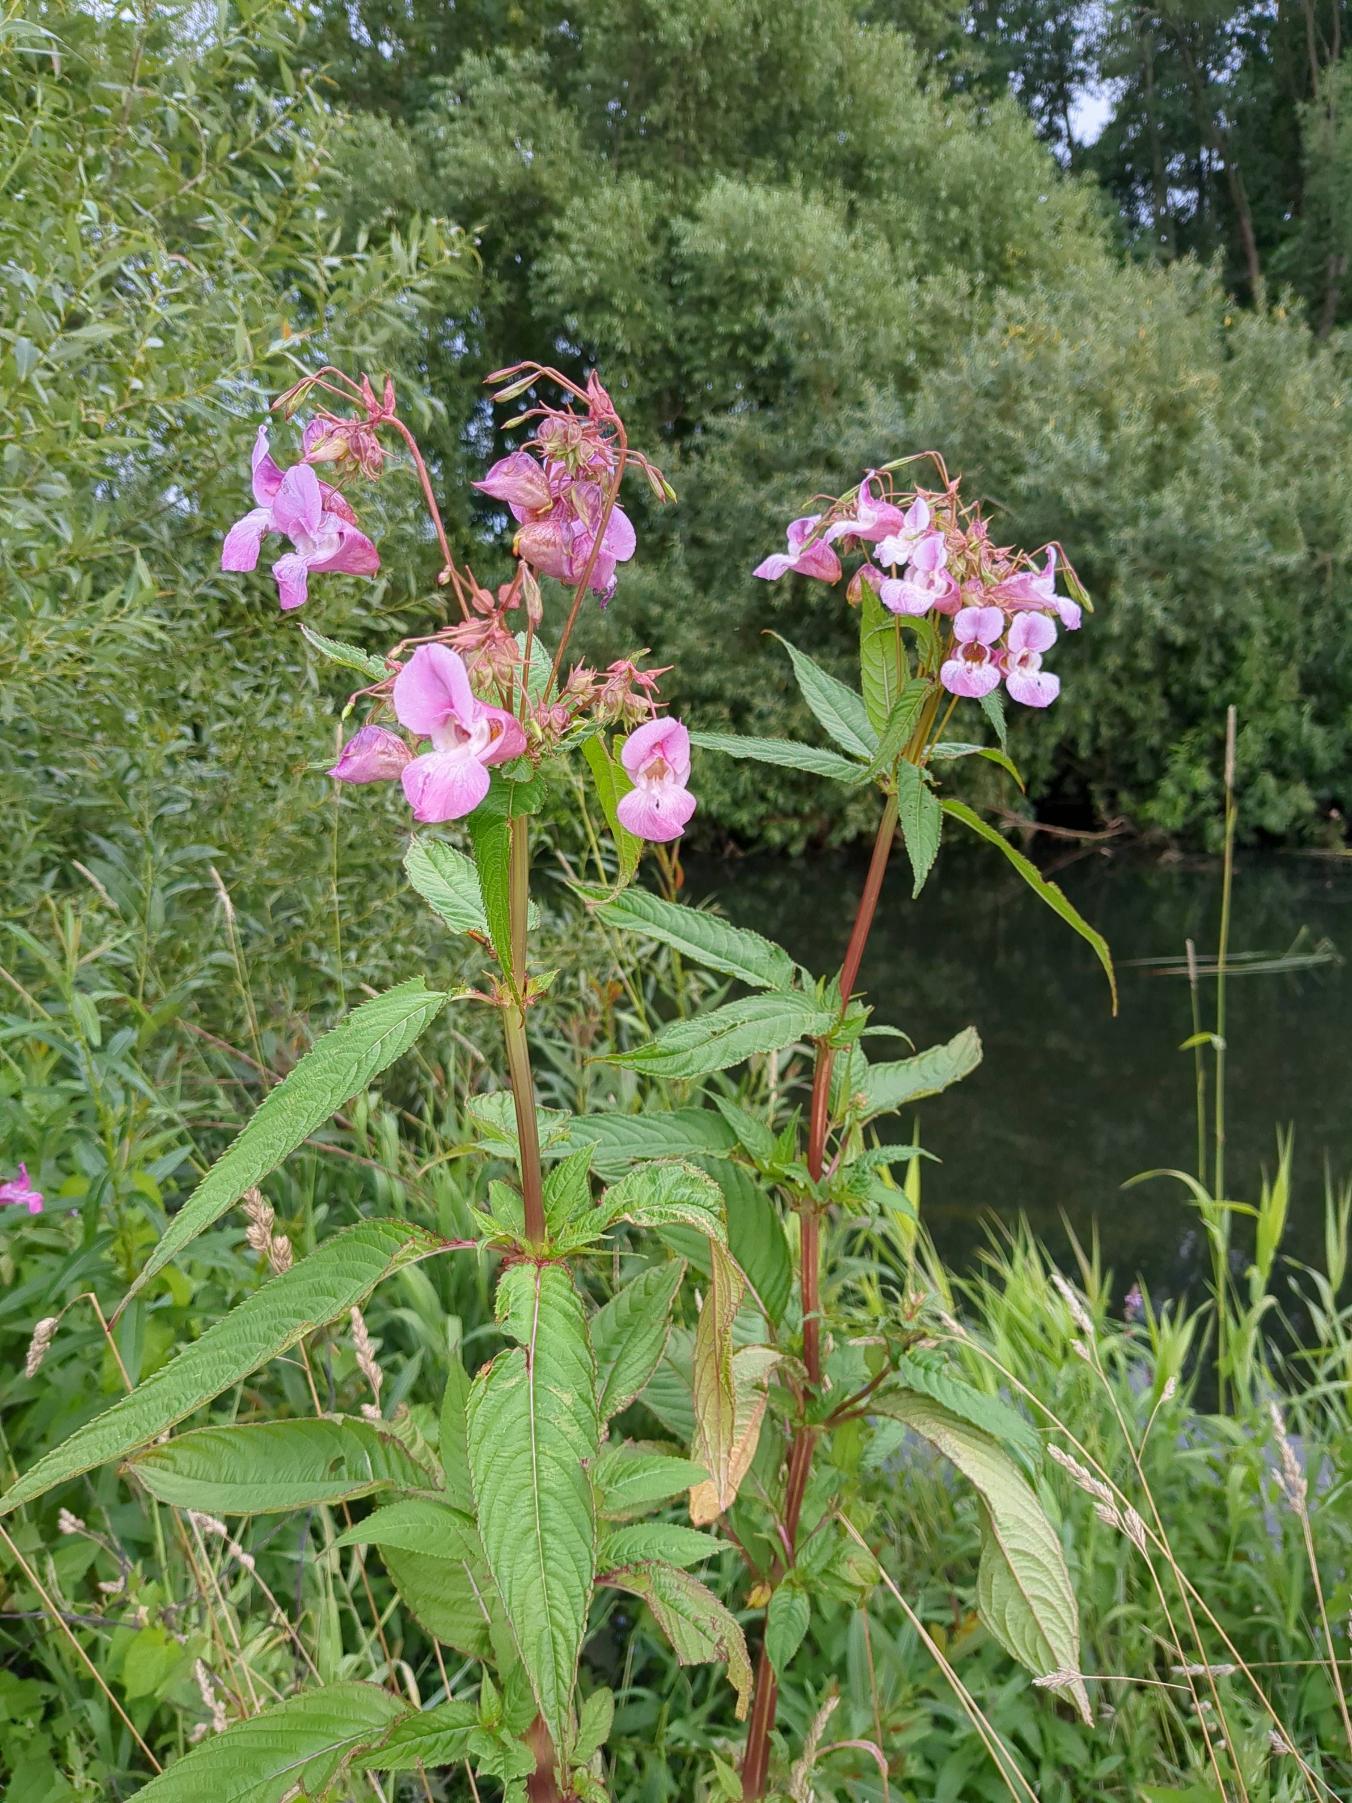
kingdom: Plantae
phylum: Tracheophyta
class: Magnoliopsida
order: Ericales
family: Balsaminaceae
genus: Impatiens
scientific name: Impatiens glandulifera
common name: Kæmpe-balsamin
